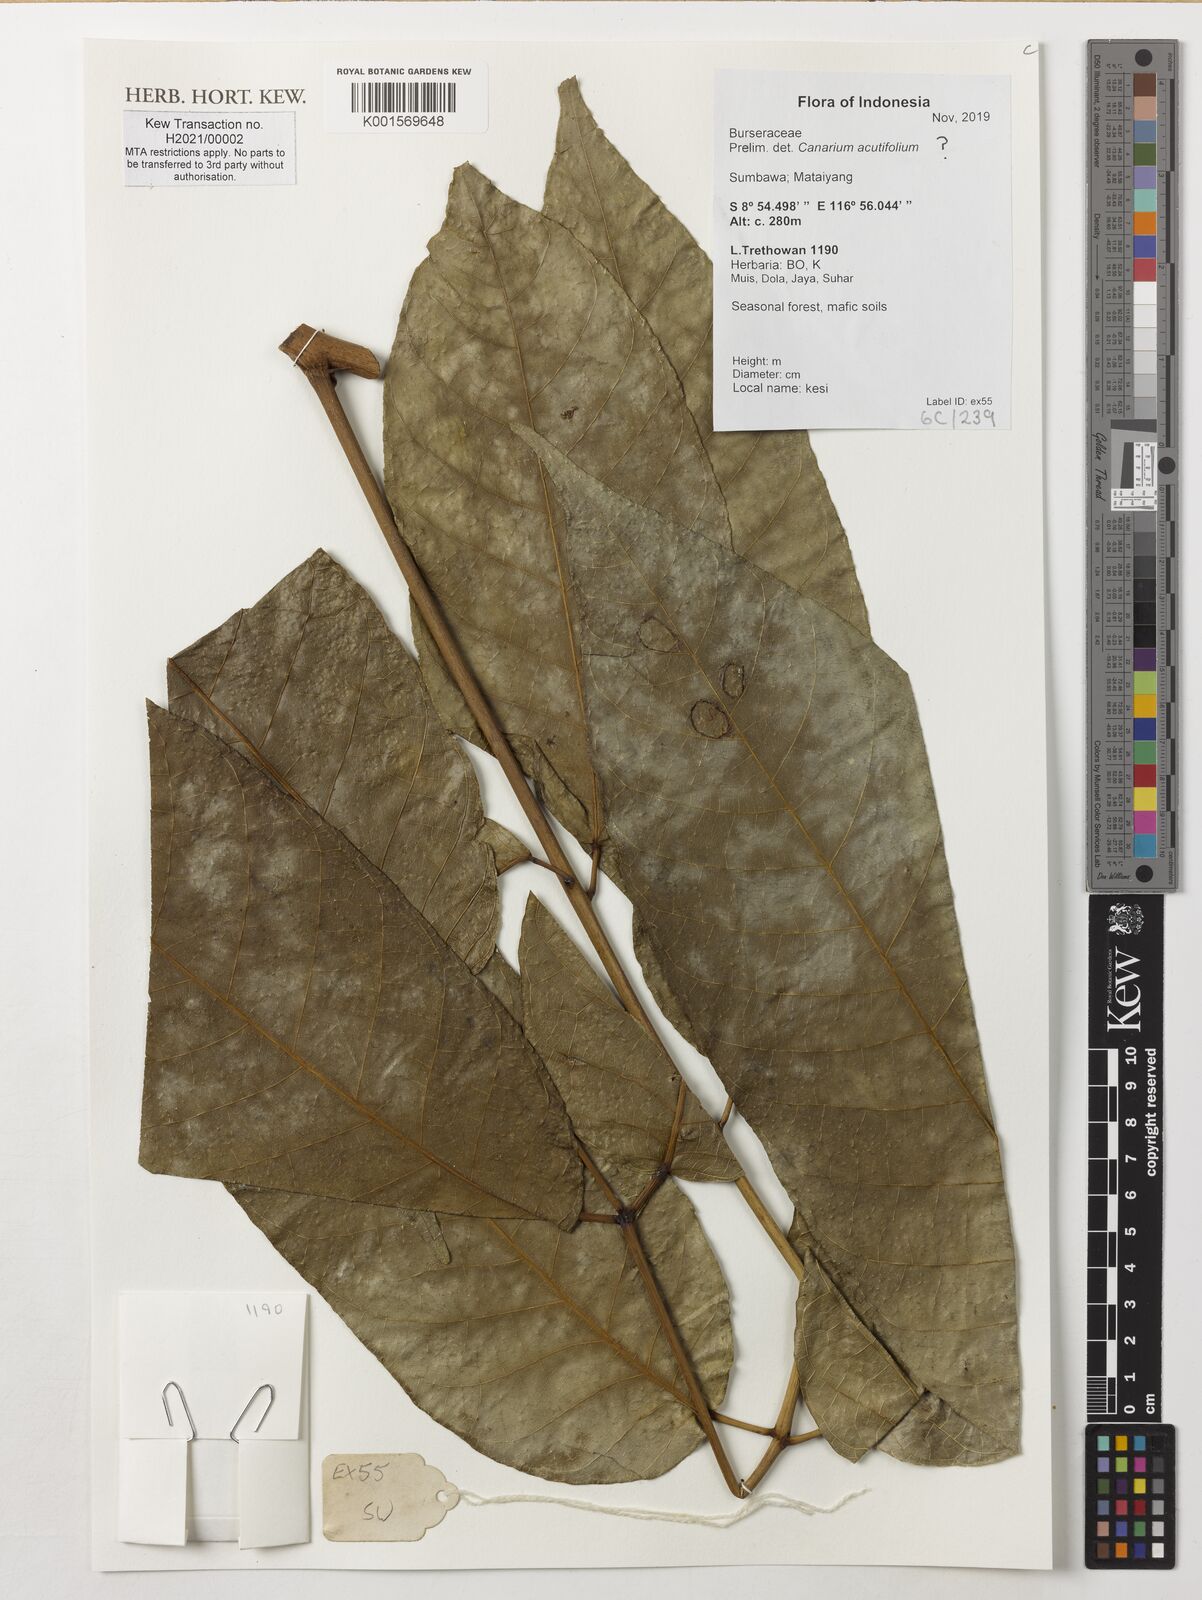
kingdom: Plantae
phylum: Tracheophyta
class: Magnoliopsida
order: Sapindales
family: Burseraceae
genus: Canarium
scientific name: Canarium acutifolium
